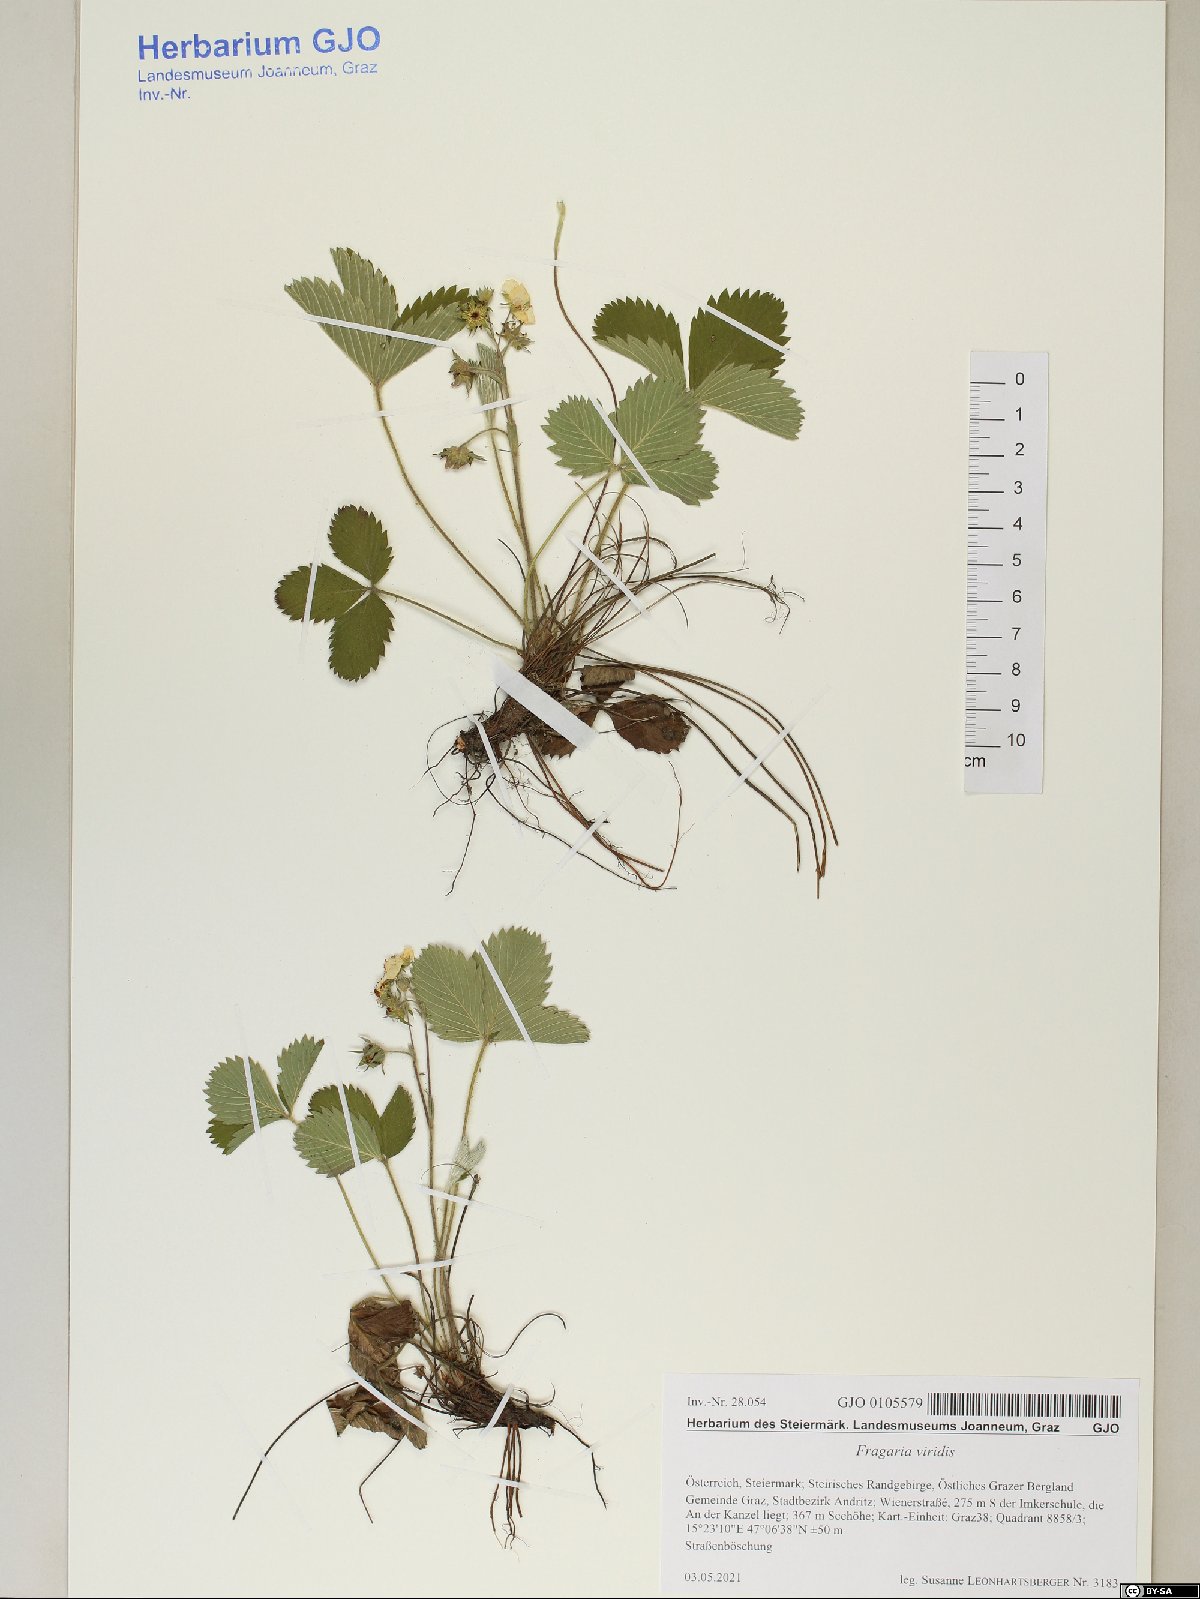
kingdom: Plantae
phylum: Tracheophyta
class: Magnoliopsida
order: Rosales
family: Rosaceae
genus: Fragaria
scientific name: Fragaria viridis
